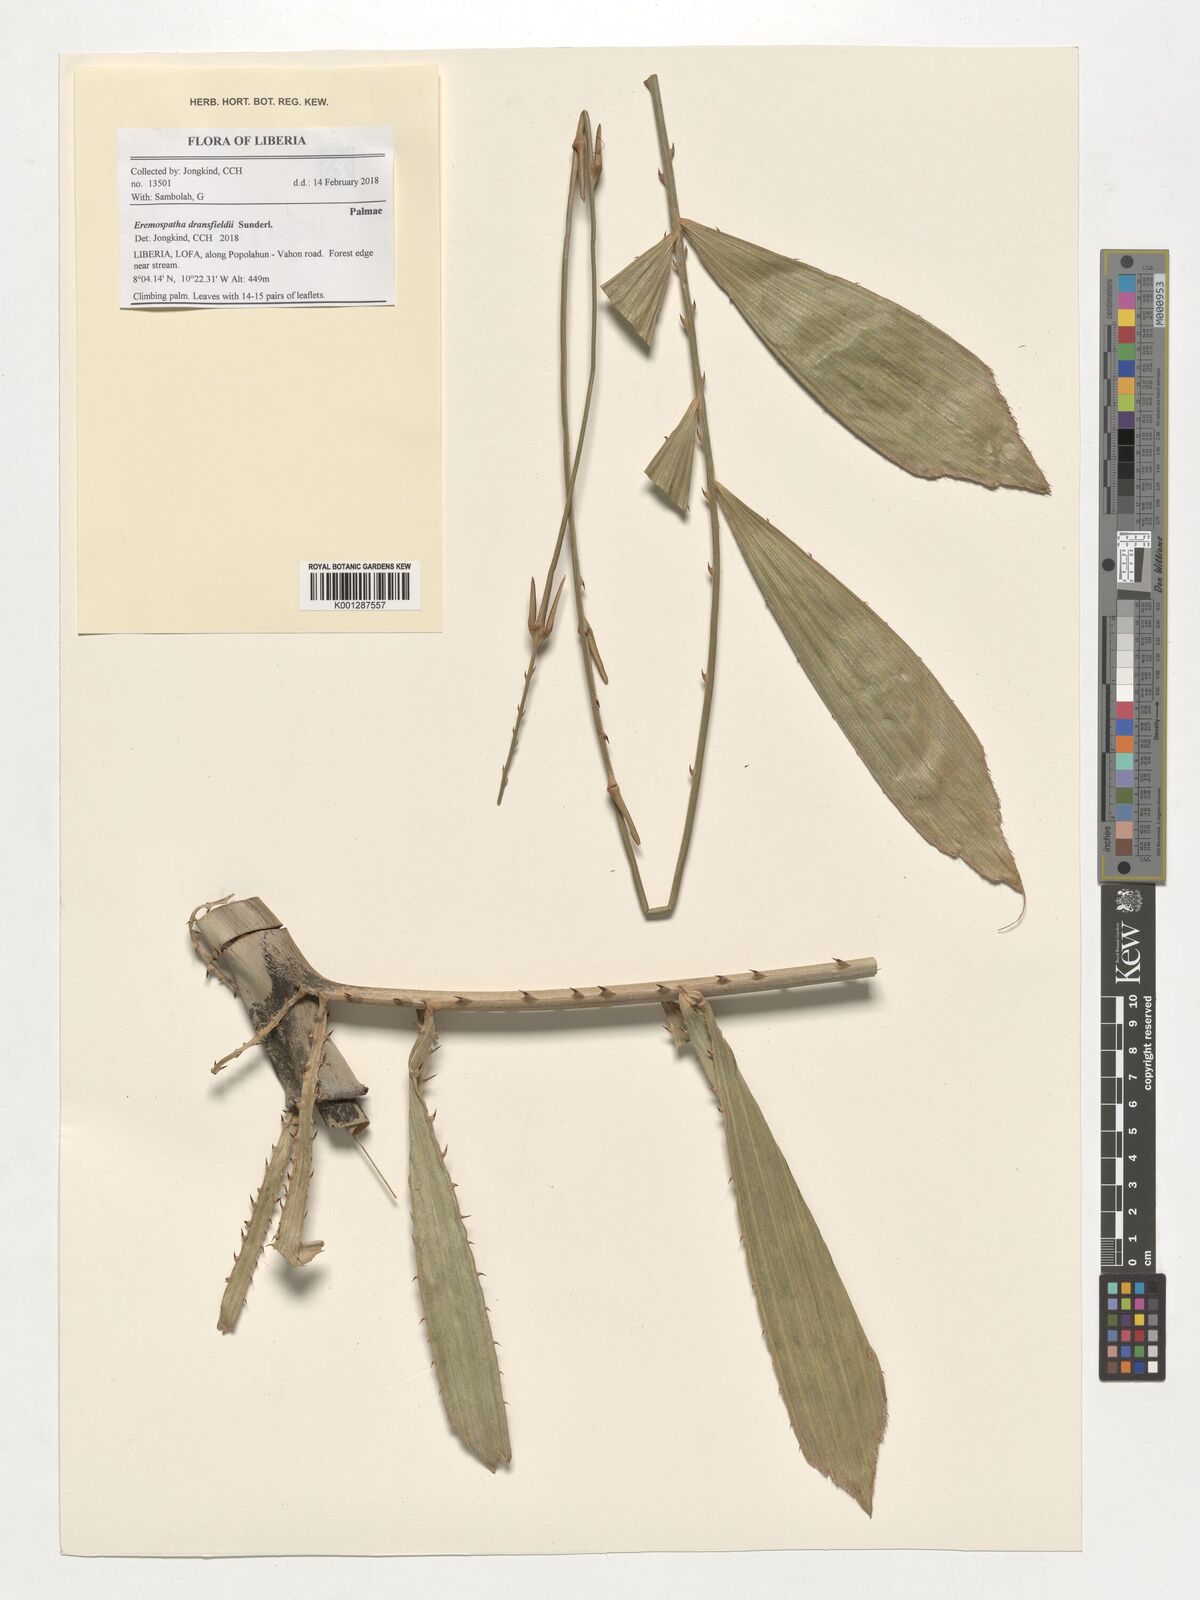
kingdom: Plantae
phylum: Tracheophyta
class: Liliopsida
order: Arecales
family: Arecaceae
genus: Eremospatha
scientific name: Eremospatha dransfieldii
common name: Rattan
